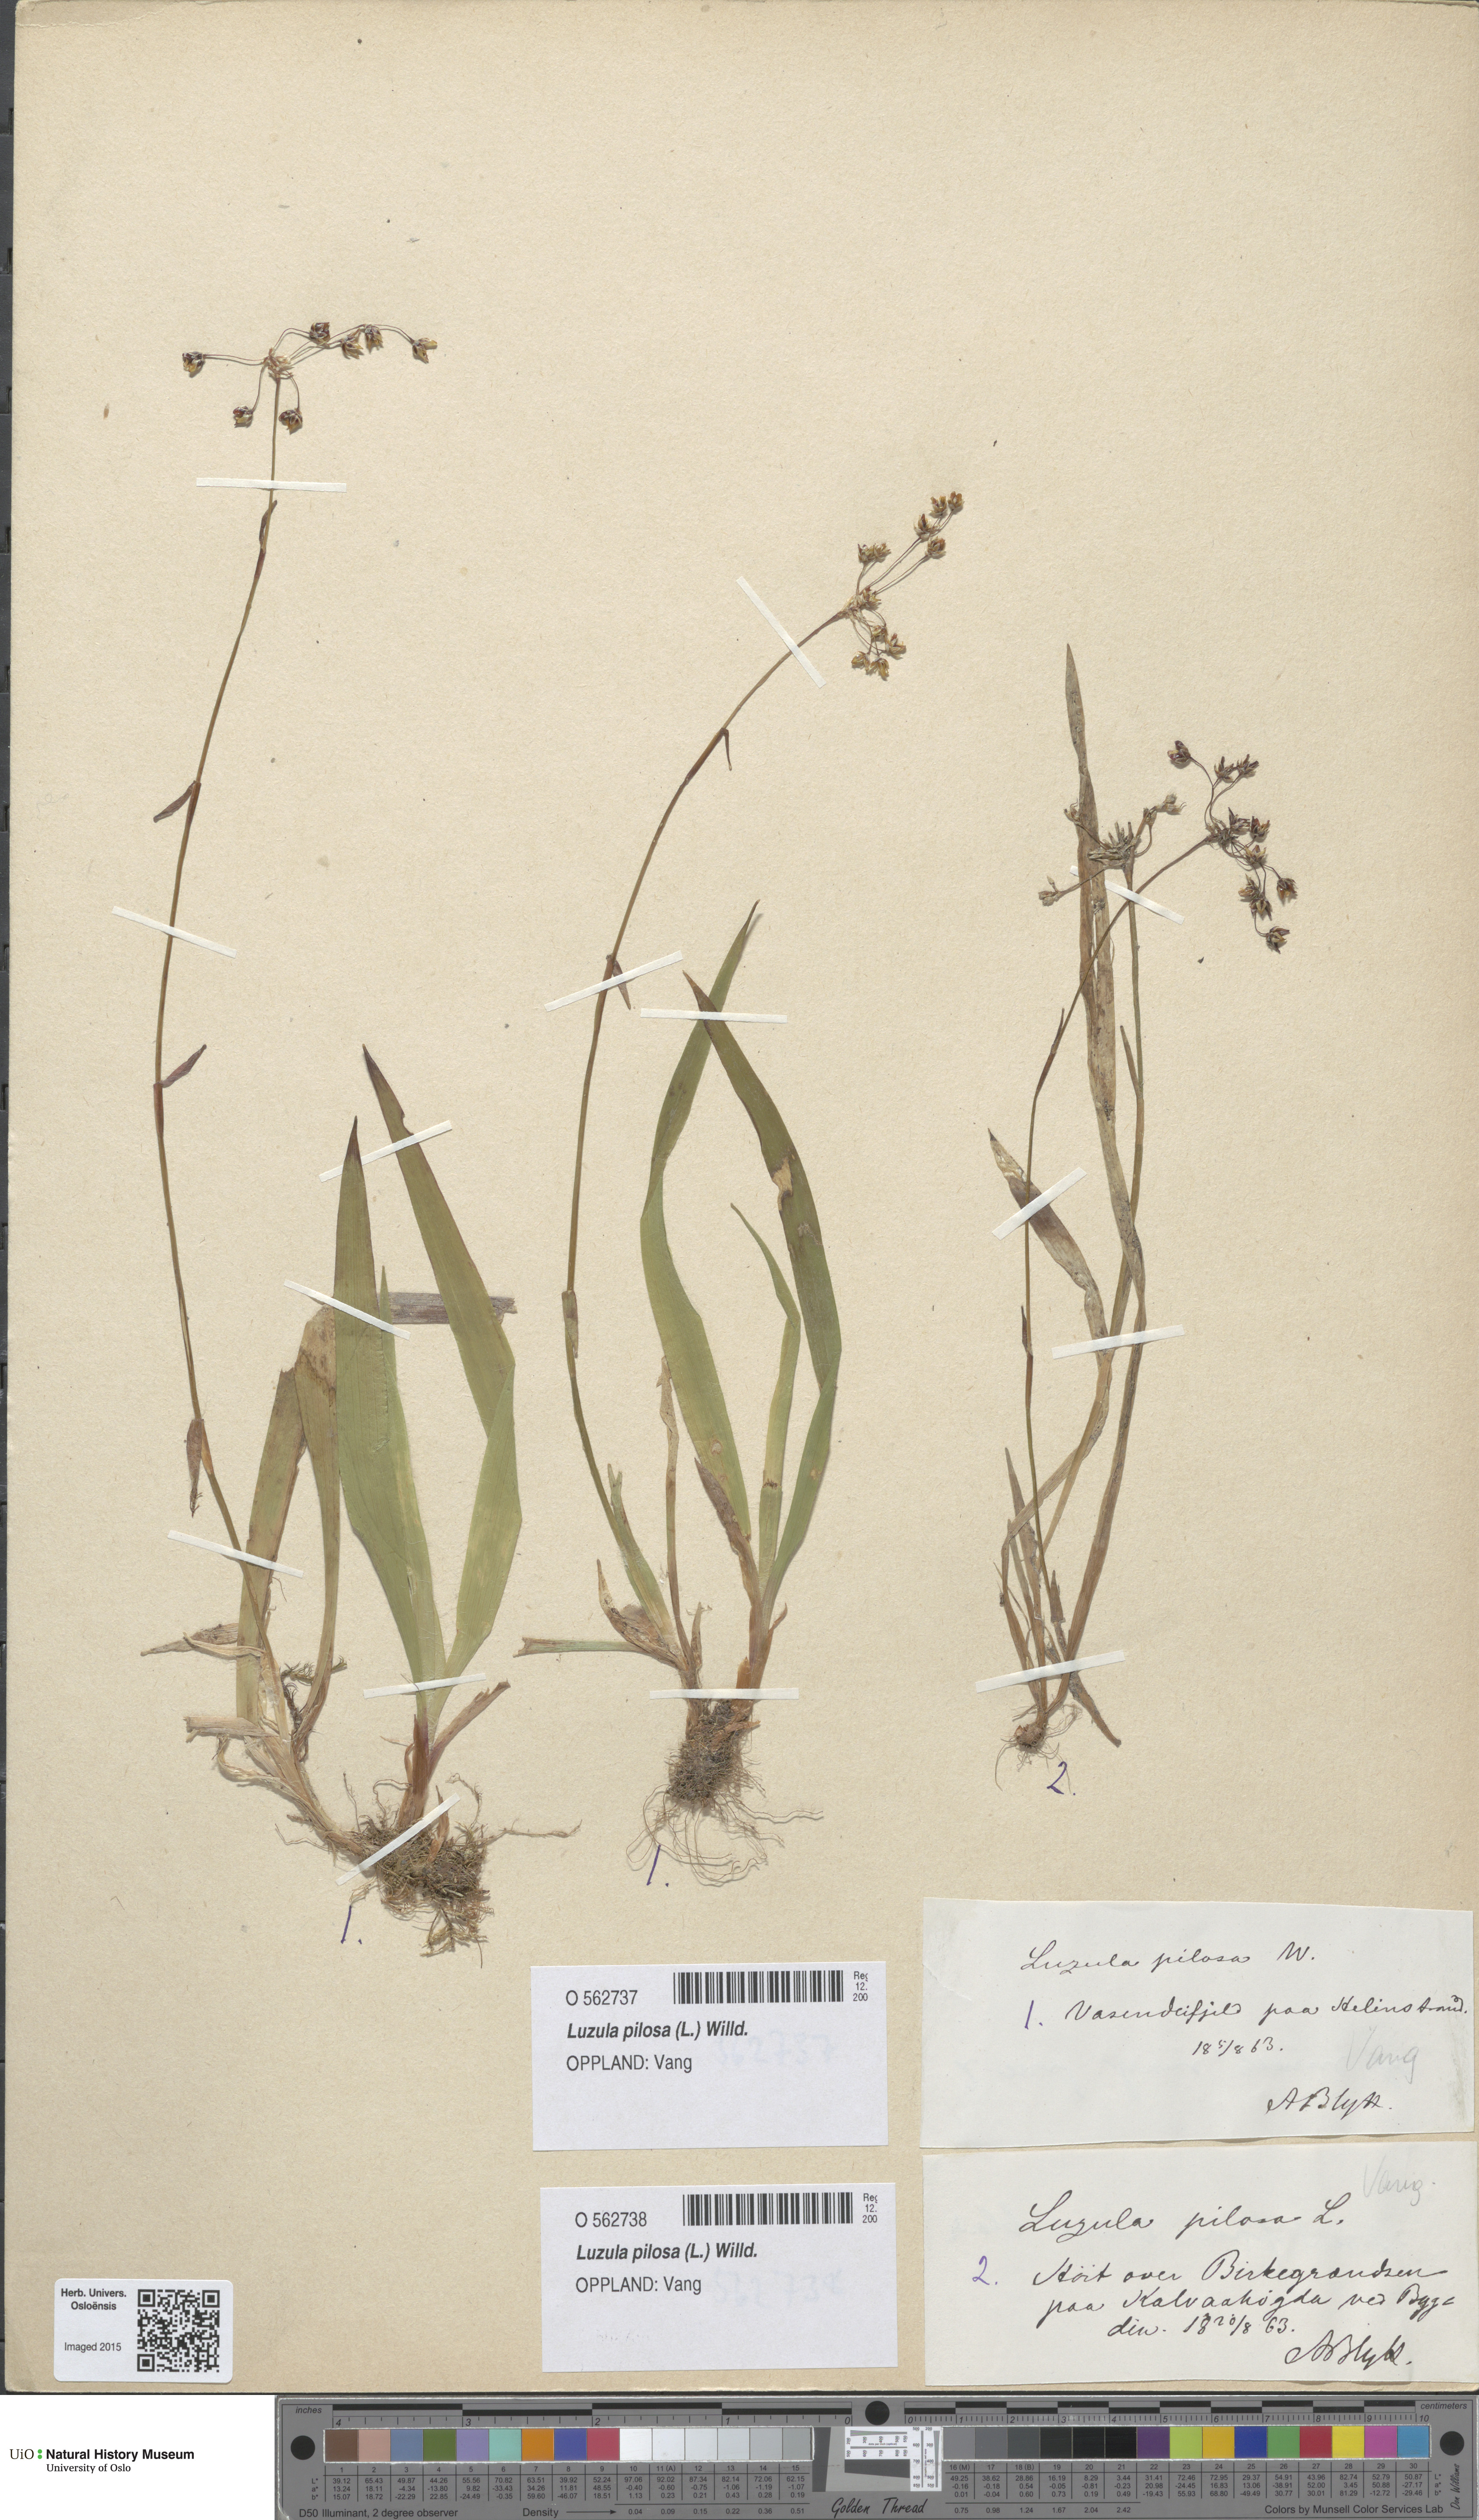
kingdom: Plantae
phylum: Tracheophyta
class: Liliopsida
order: Poales
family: Juncaceae
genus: Luzula
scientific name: Luzula pilosa
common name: Hairy wood-rush
